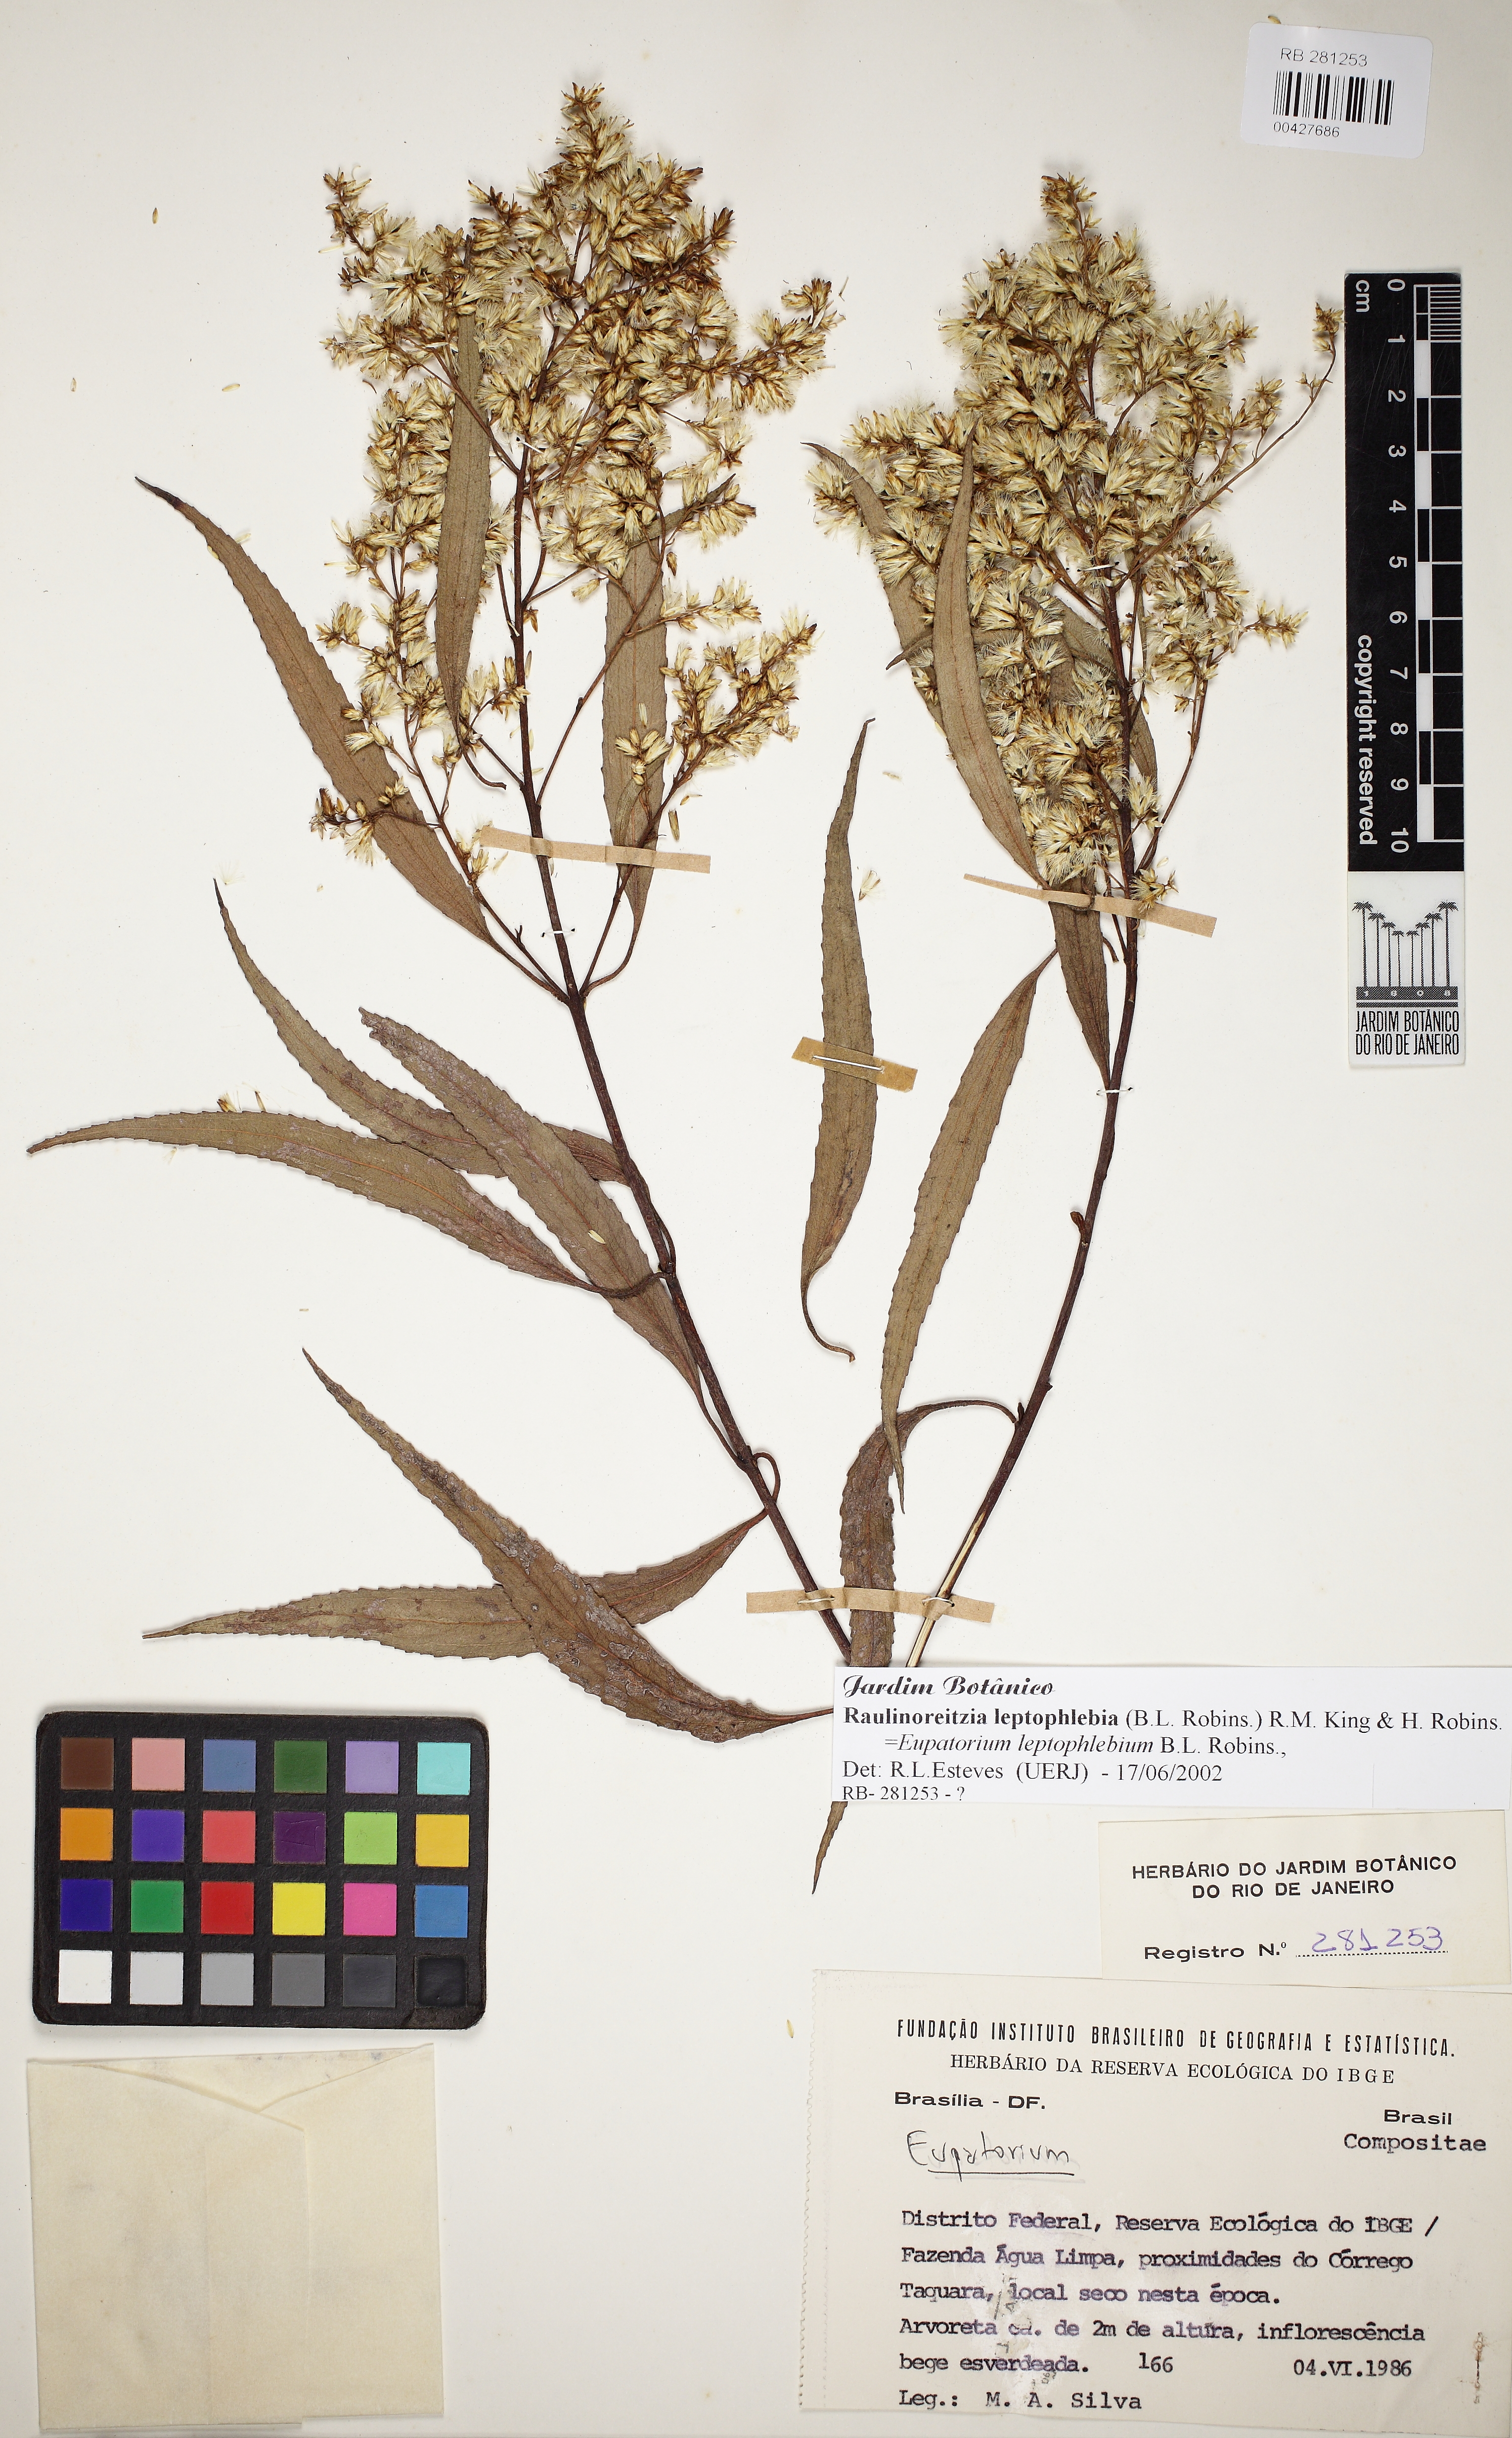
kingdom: Plantae
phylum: Tracheophyta
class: Magnoliopsida
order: Asterales
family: Asteraceae
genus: Raulinoreitzia
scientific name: Raulinoreitzia leptophlebia
